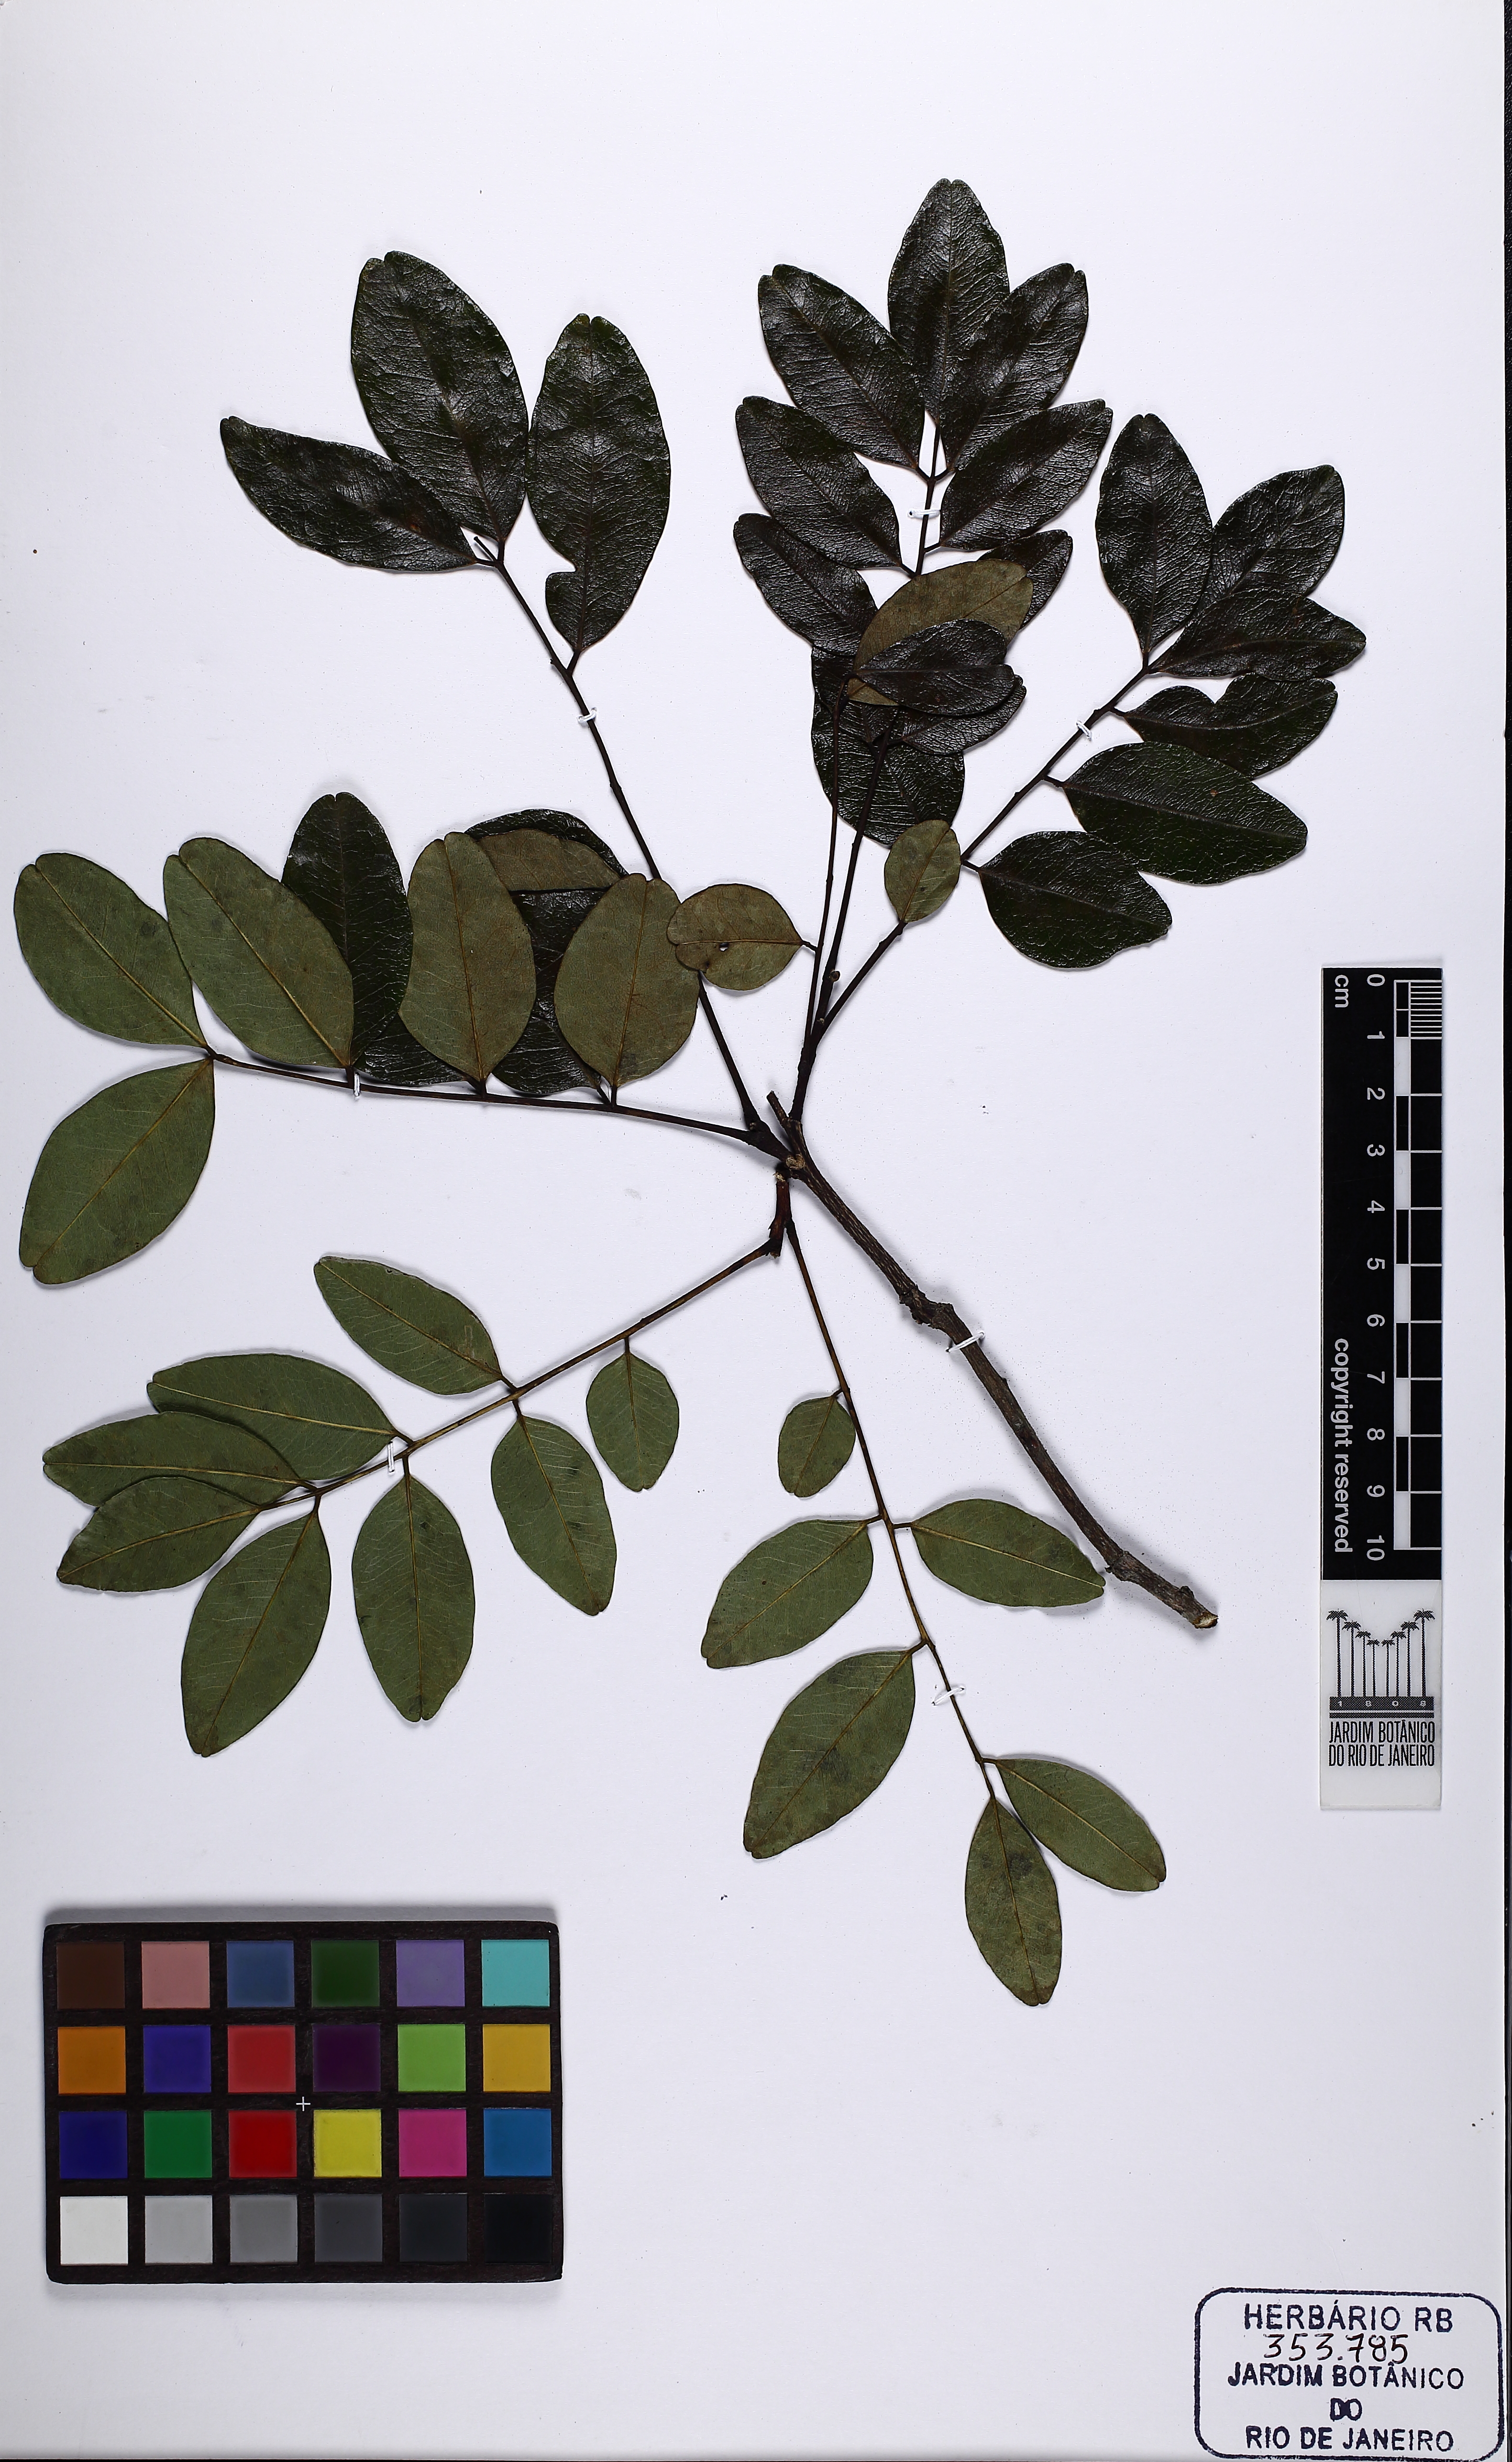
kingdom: Plantae
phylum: Tracheophyta
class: Magnoliopsida
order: Fabales
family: Fabaceae
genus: Leptolobium
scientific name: Leptolobium
